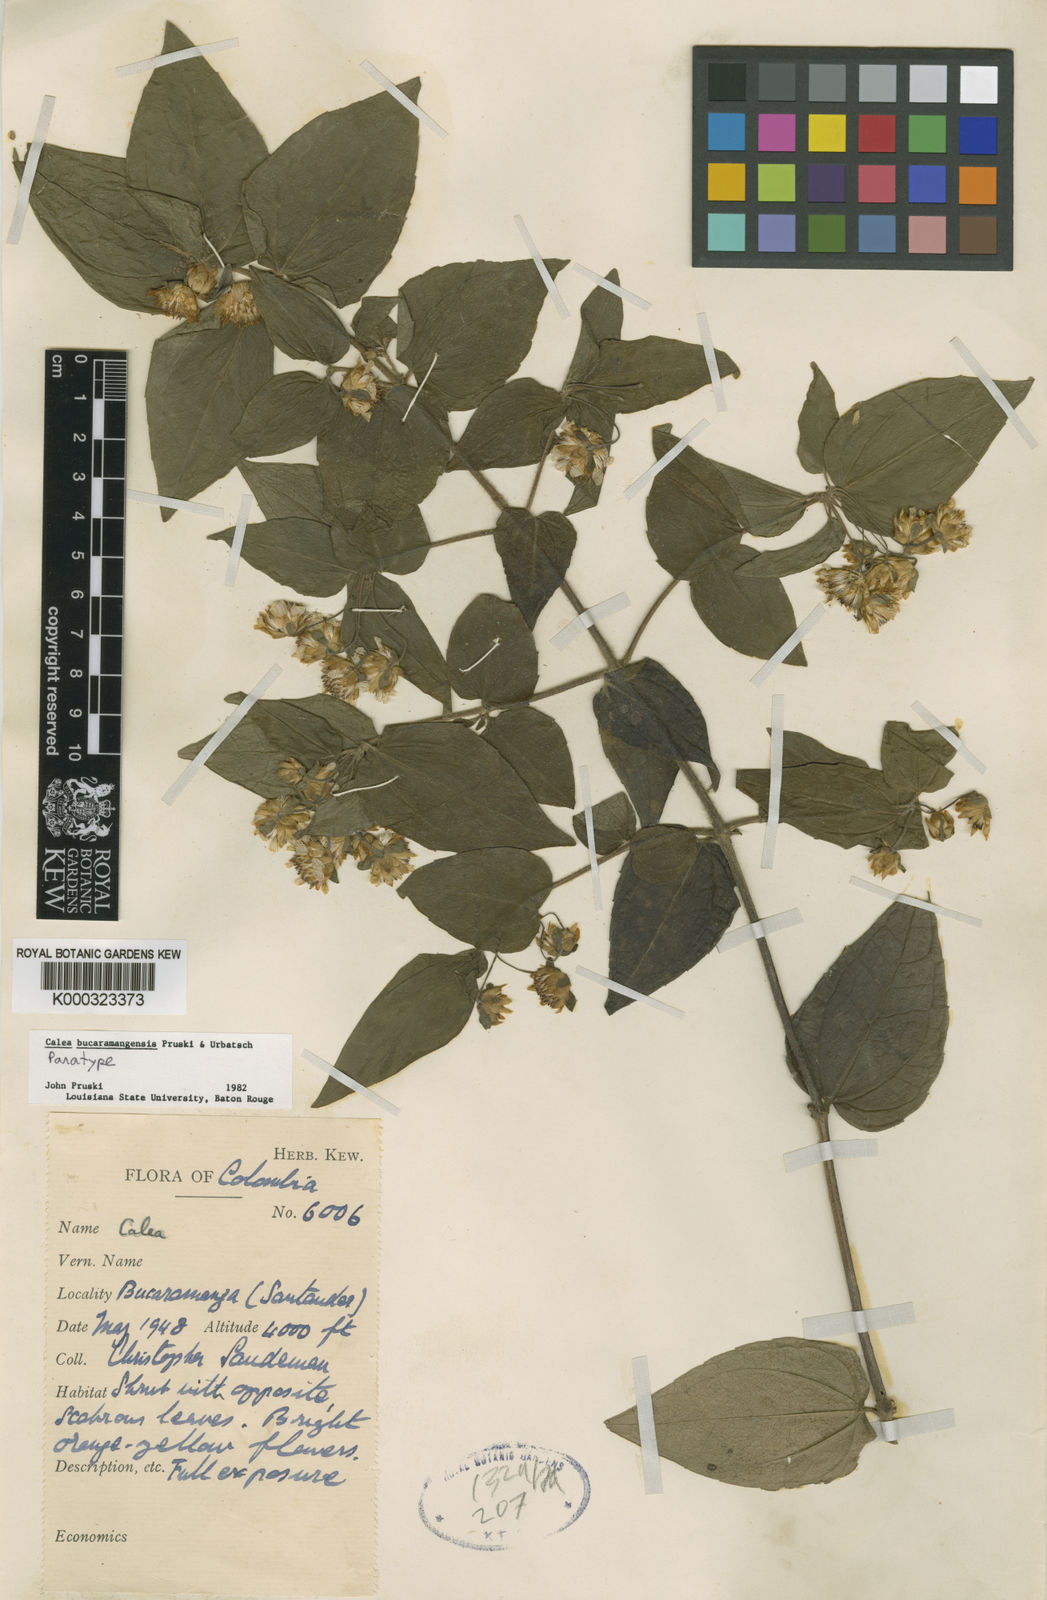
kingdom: Plantae
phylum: Tracheophyta
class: Magnoliopsida
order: Asterales
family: Asteraceae
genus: Calea
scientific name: Calea bucaramangensis
